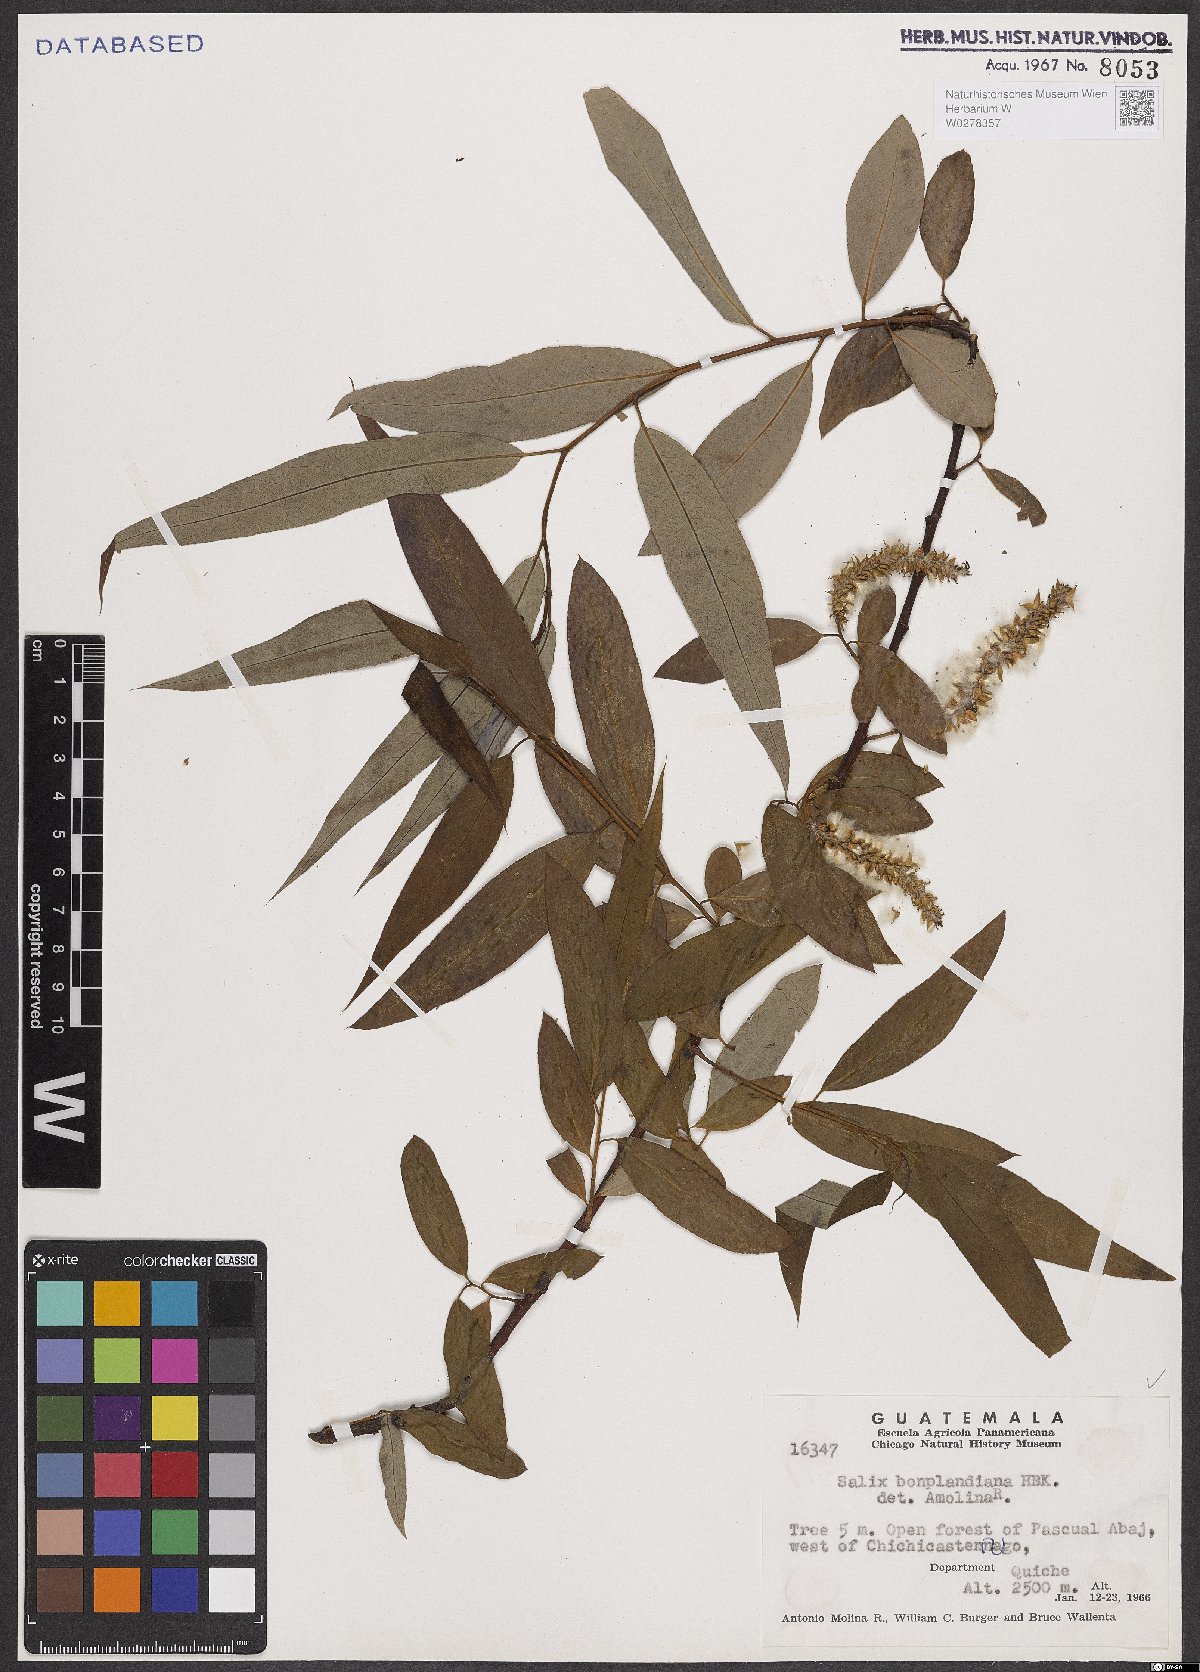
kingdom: Plantae
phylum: Tracheophyta
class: Magnoliopsida
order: Malpighiales
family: Salicaceae
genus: Salix
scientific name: Salix bonplandiana
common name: Bonpland’s willow
